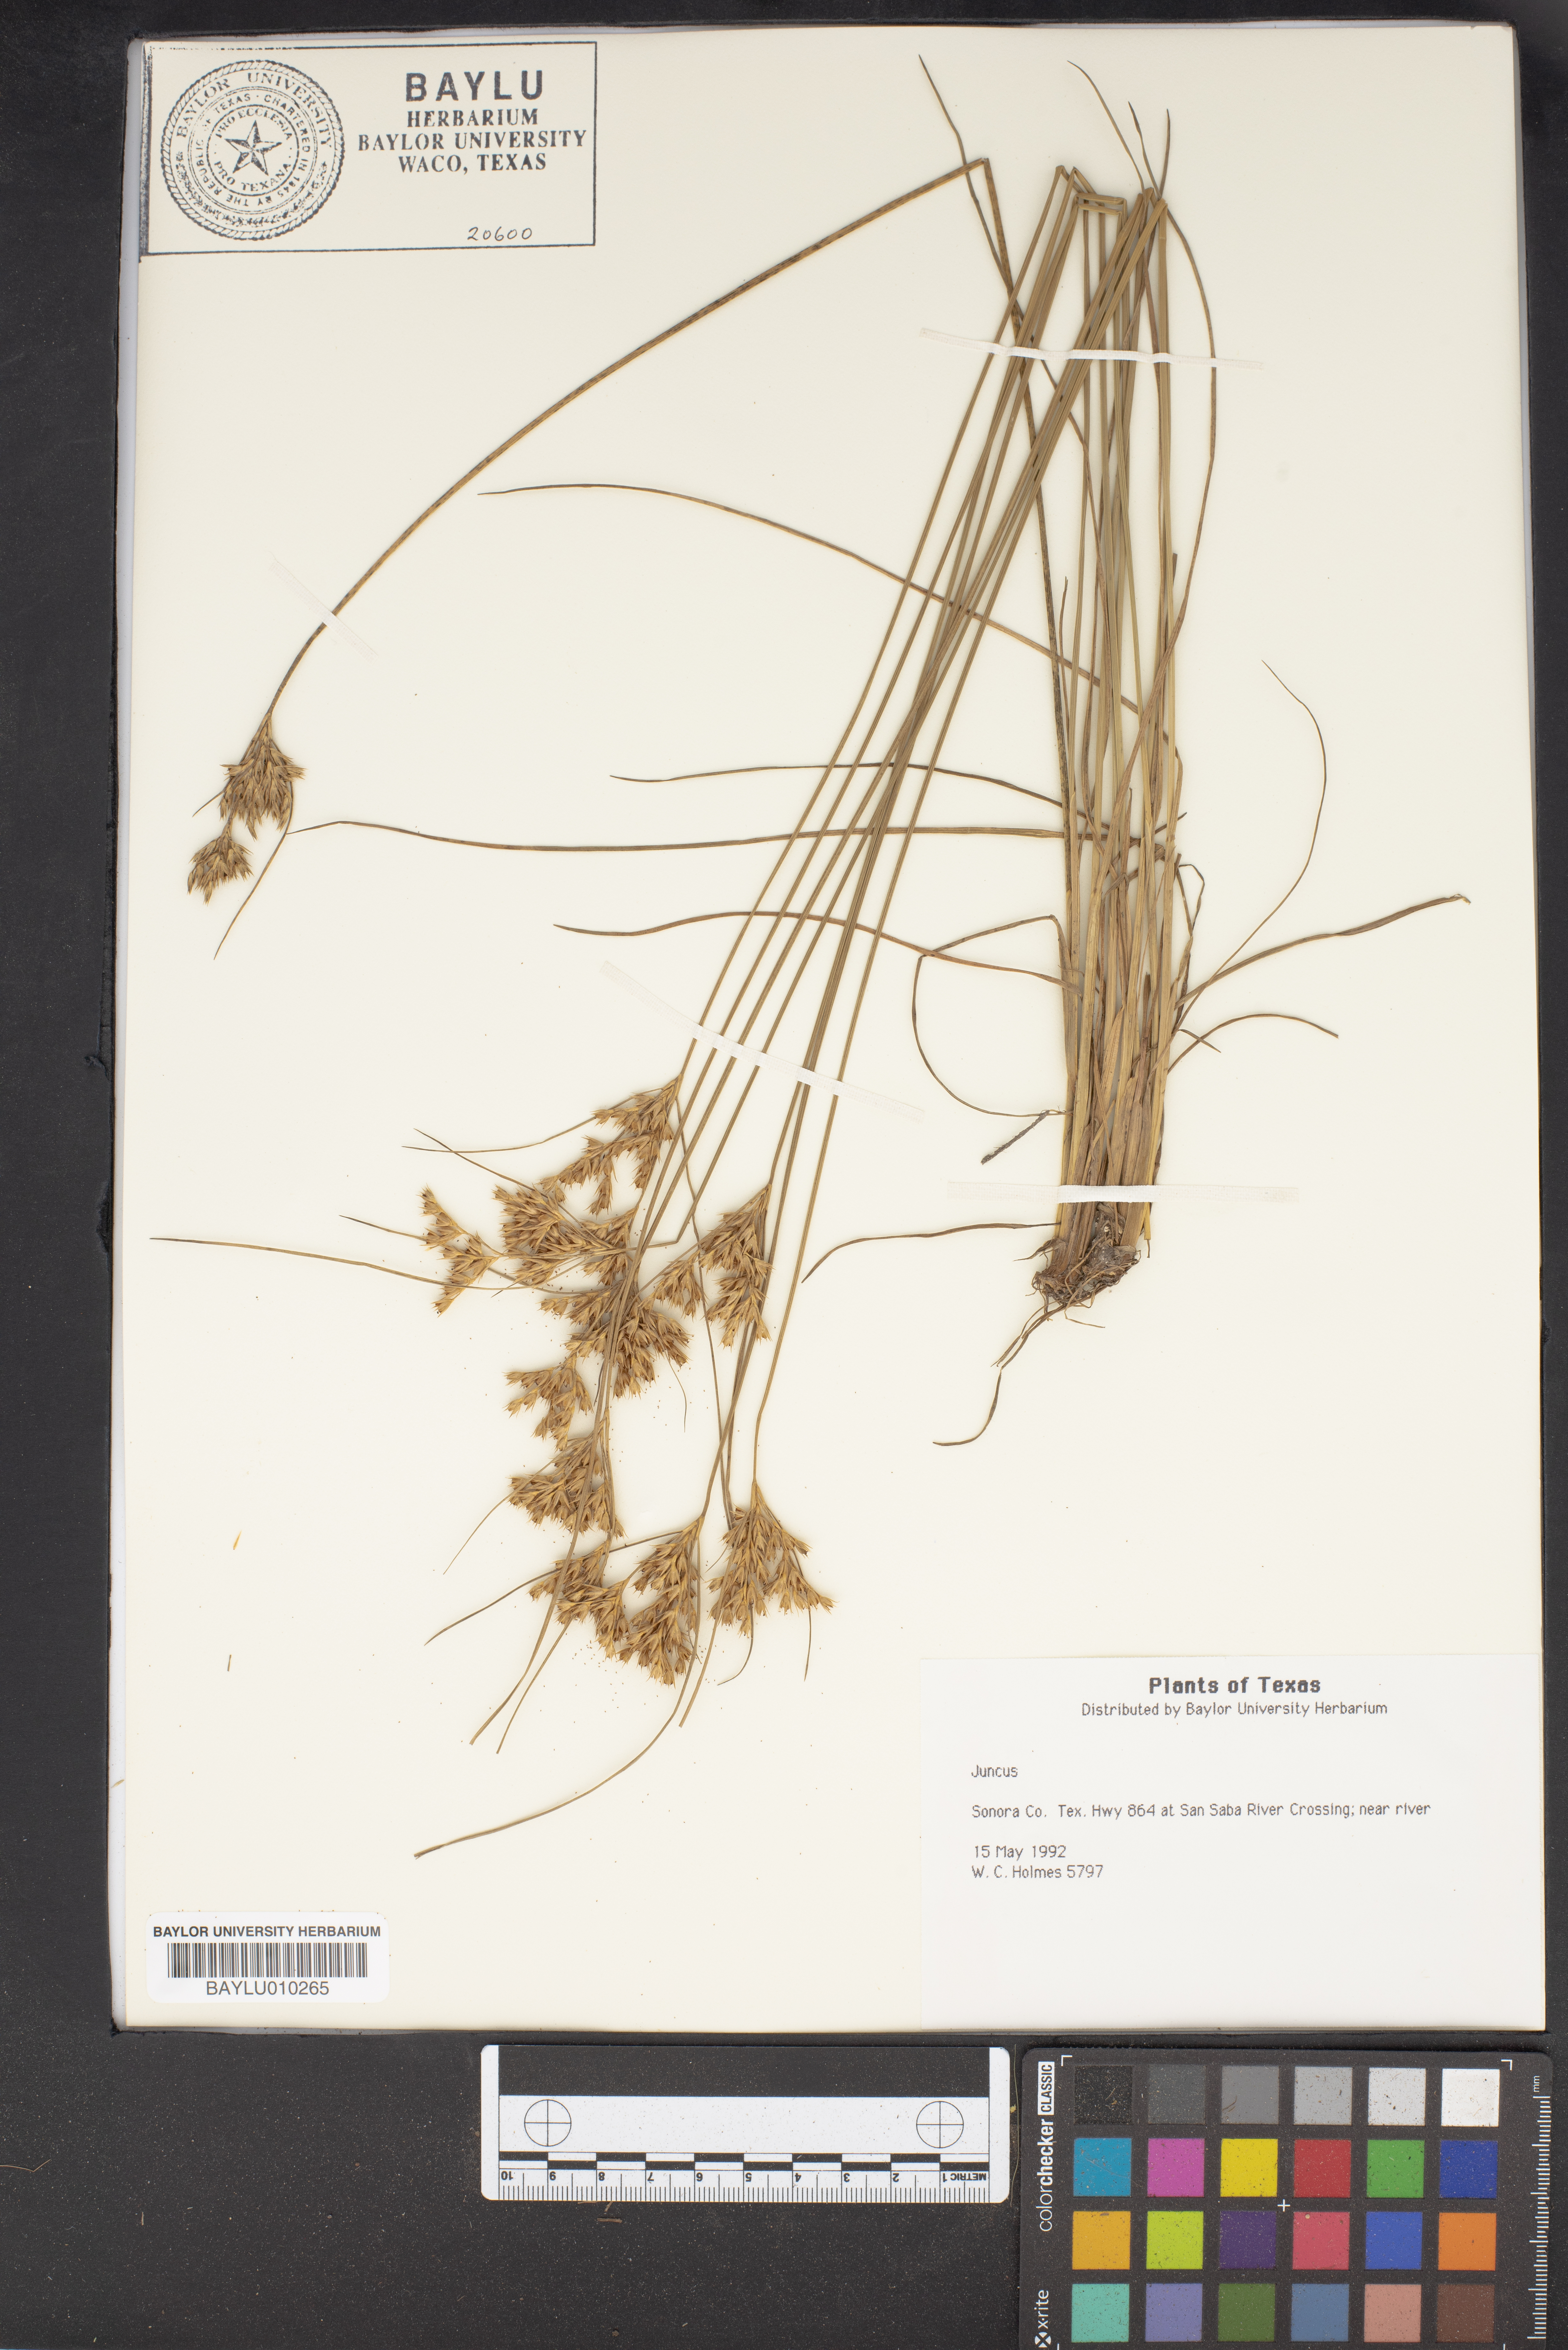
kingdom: Plantae
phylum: Tracheophyta
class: Liliopsida
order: Poales
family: Juncaceae
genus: Juncus
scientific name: Juncus
